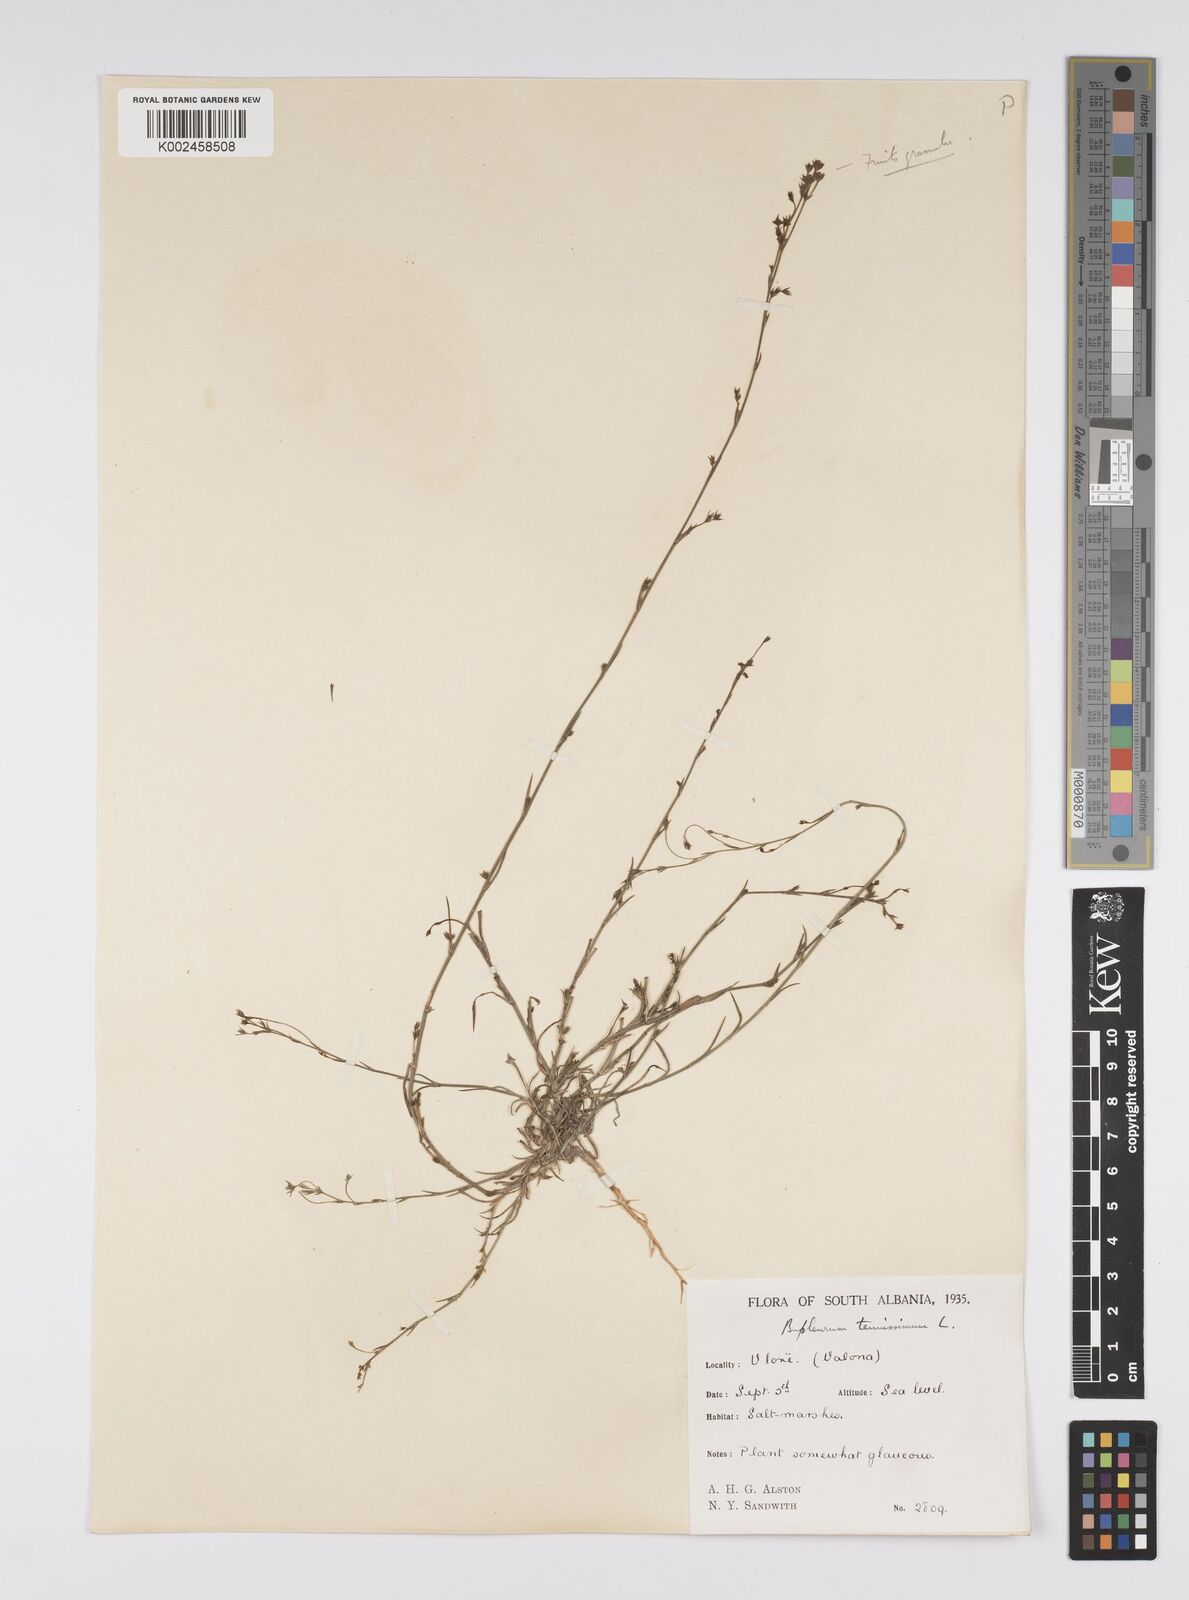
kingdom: Plantae
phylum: Tracheophyta
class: Magnoliopsida
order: Apiales
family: Apiaceae
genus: Bupleurum
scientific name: Bupleurum tenuissimum
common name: Slender hare's-ear
